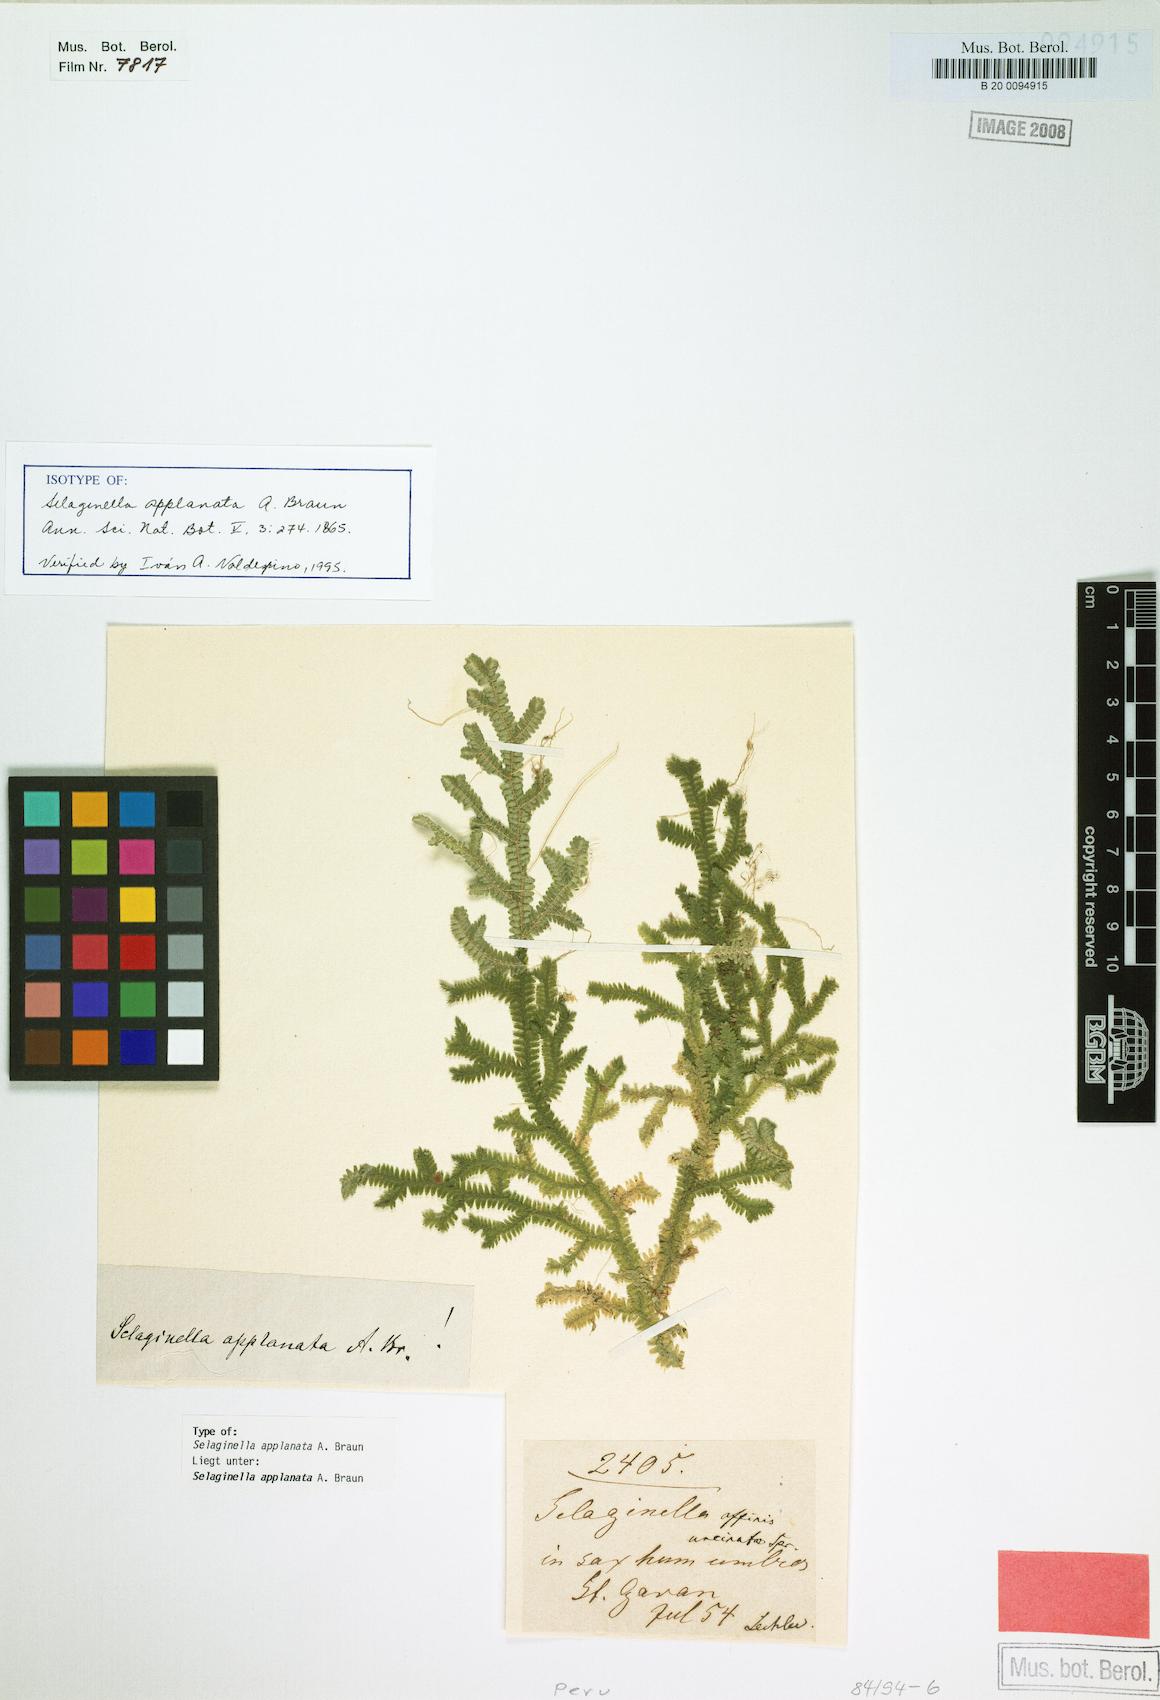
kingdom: Plantae
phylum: Tracheophyta
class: Lycopodiopsida
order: Selaginellales
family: Selaginellaceae
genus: Selaginella
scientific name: Selaginella applanata
